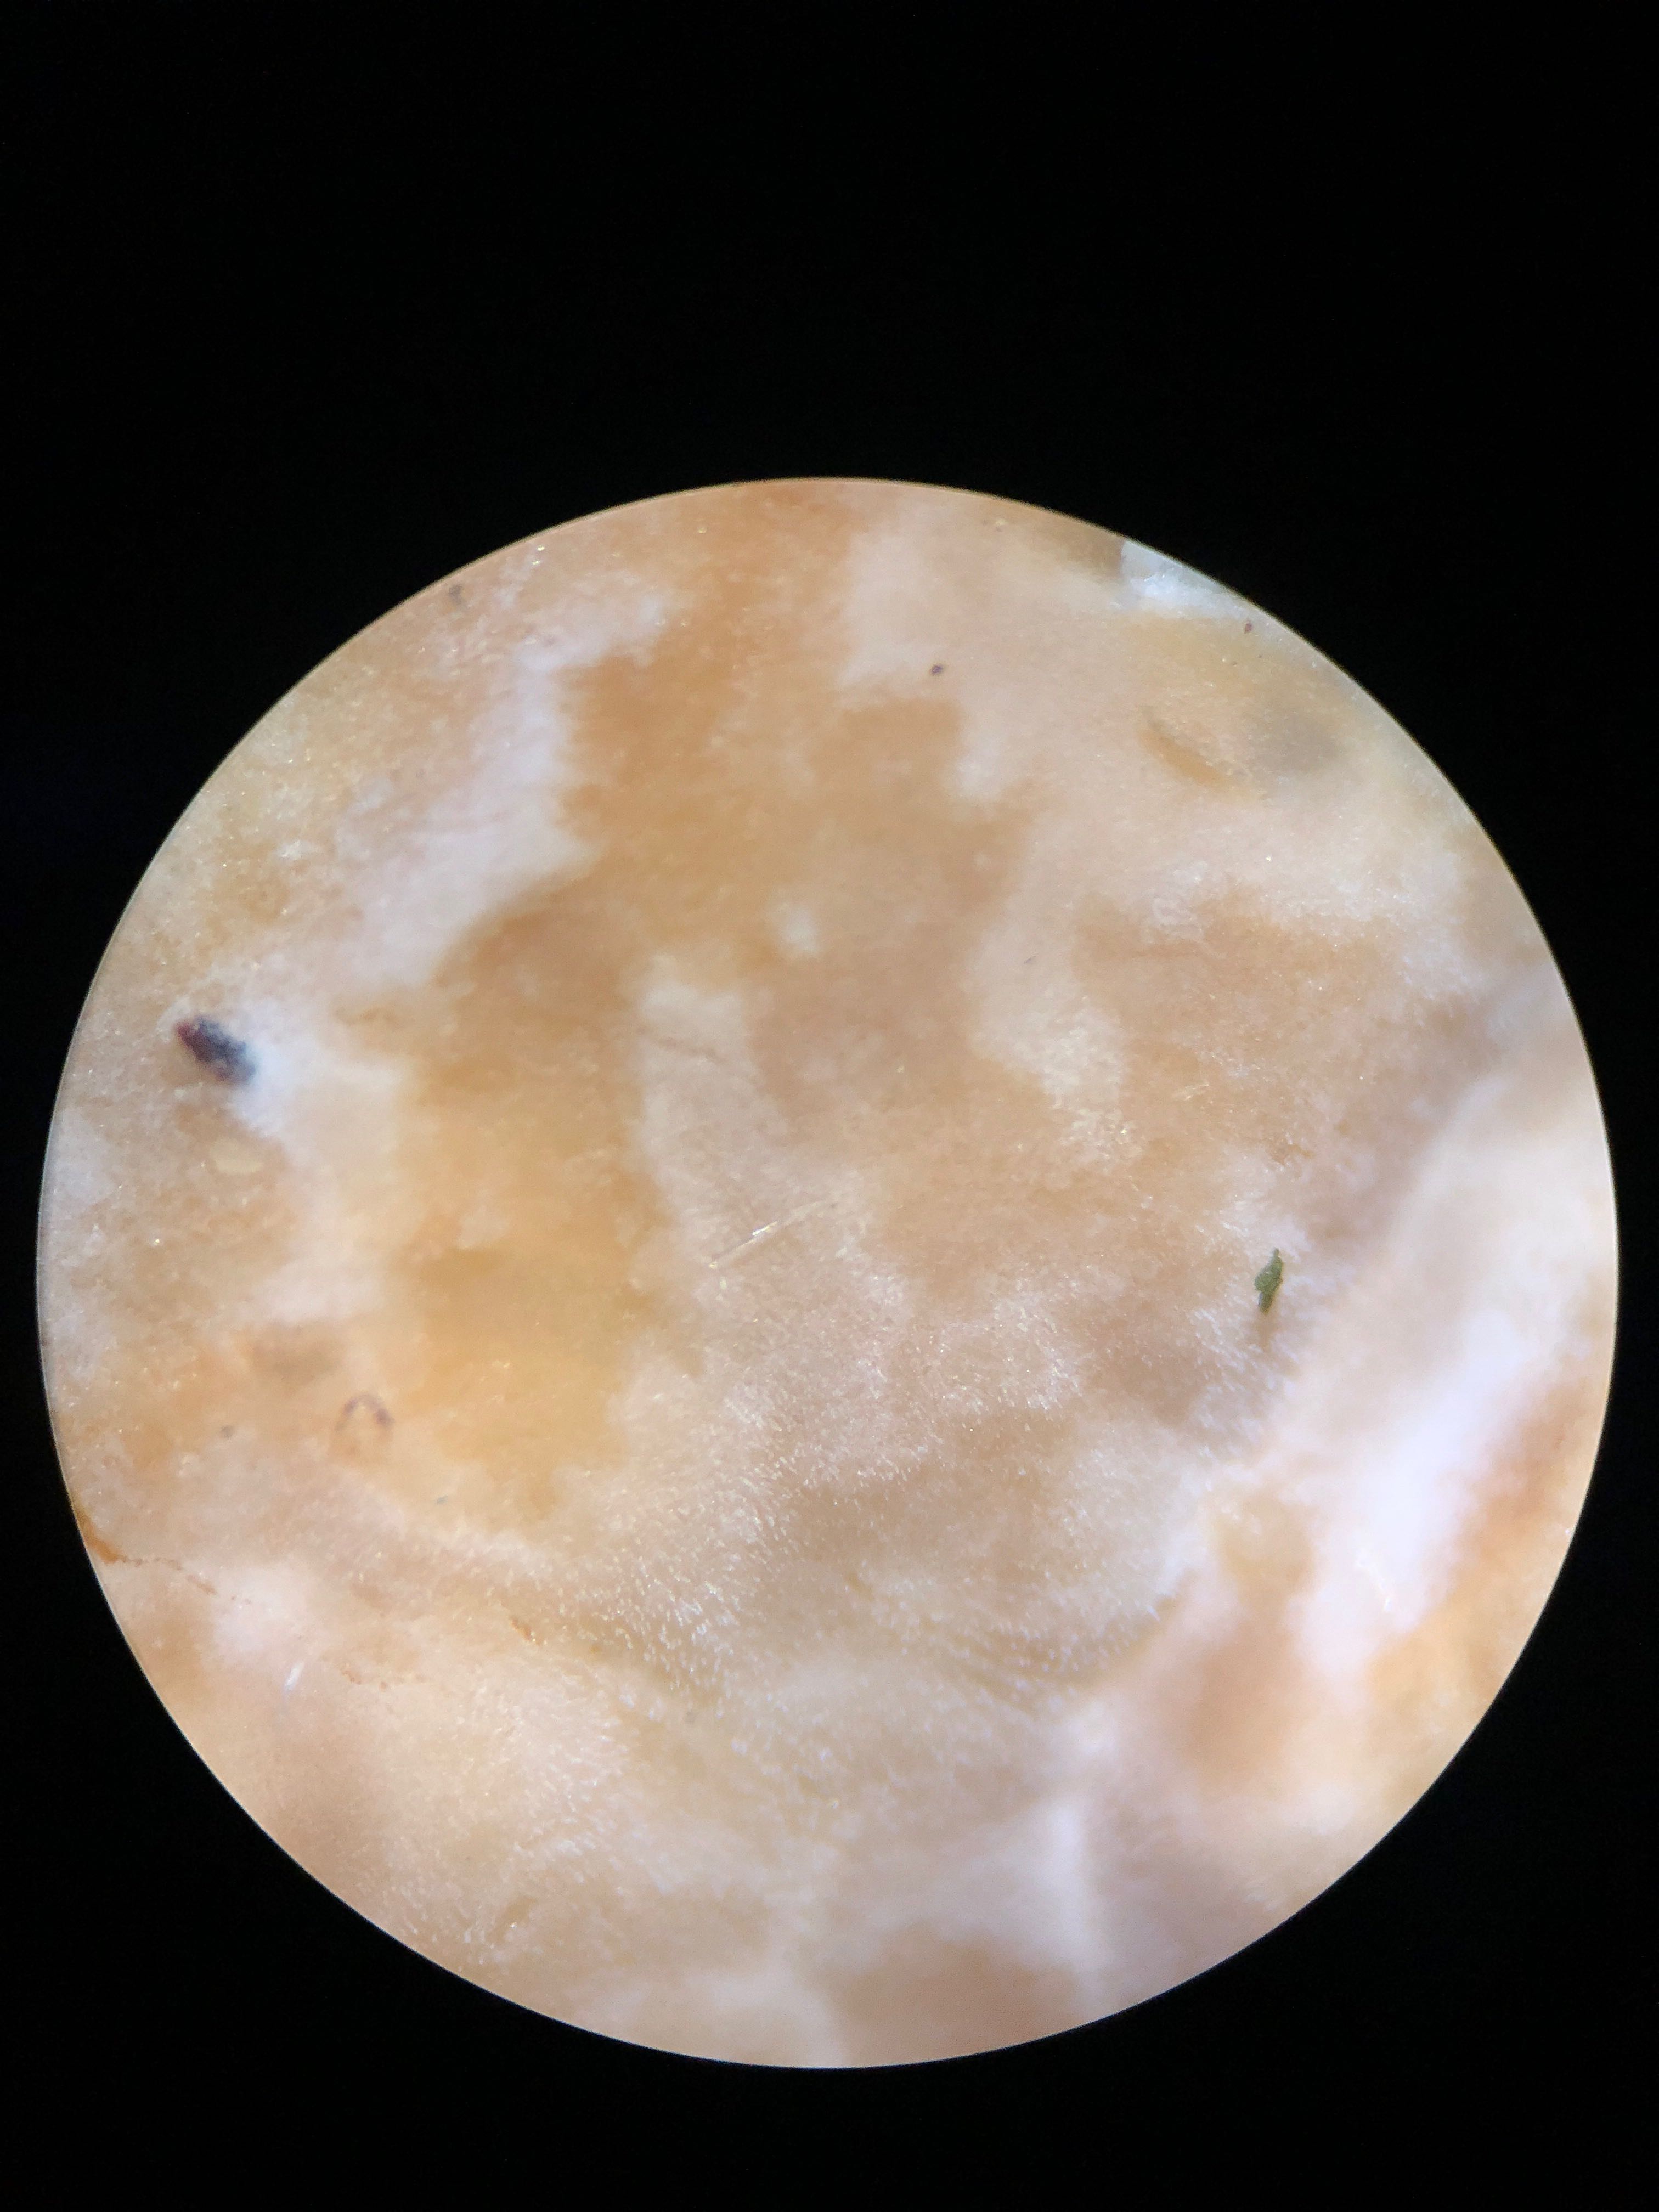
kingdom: Fungi
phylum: Basidiomycota
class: Agaricomycetes
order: Polyporales
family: Dacryobolaceae
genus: Dacryobolus
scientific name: Dacryobolus karstenii
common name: glat vulkanskorpe
